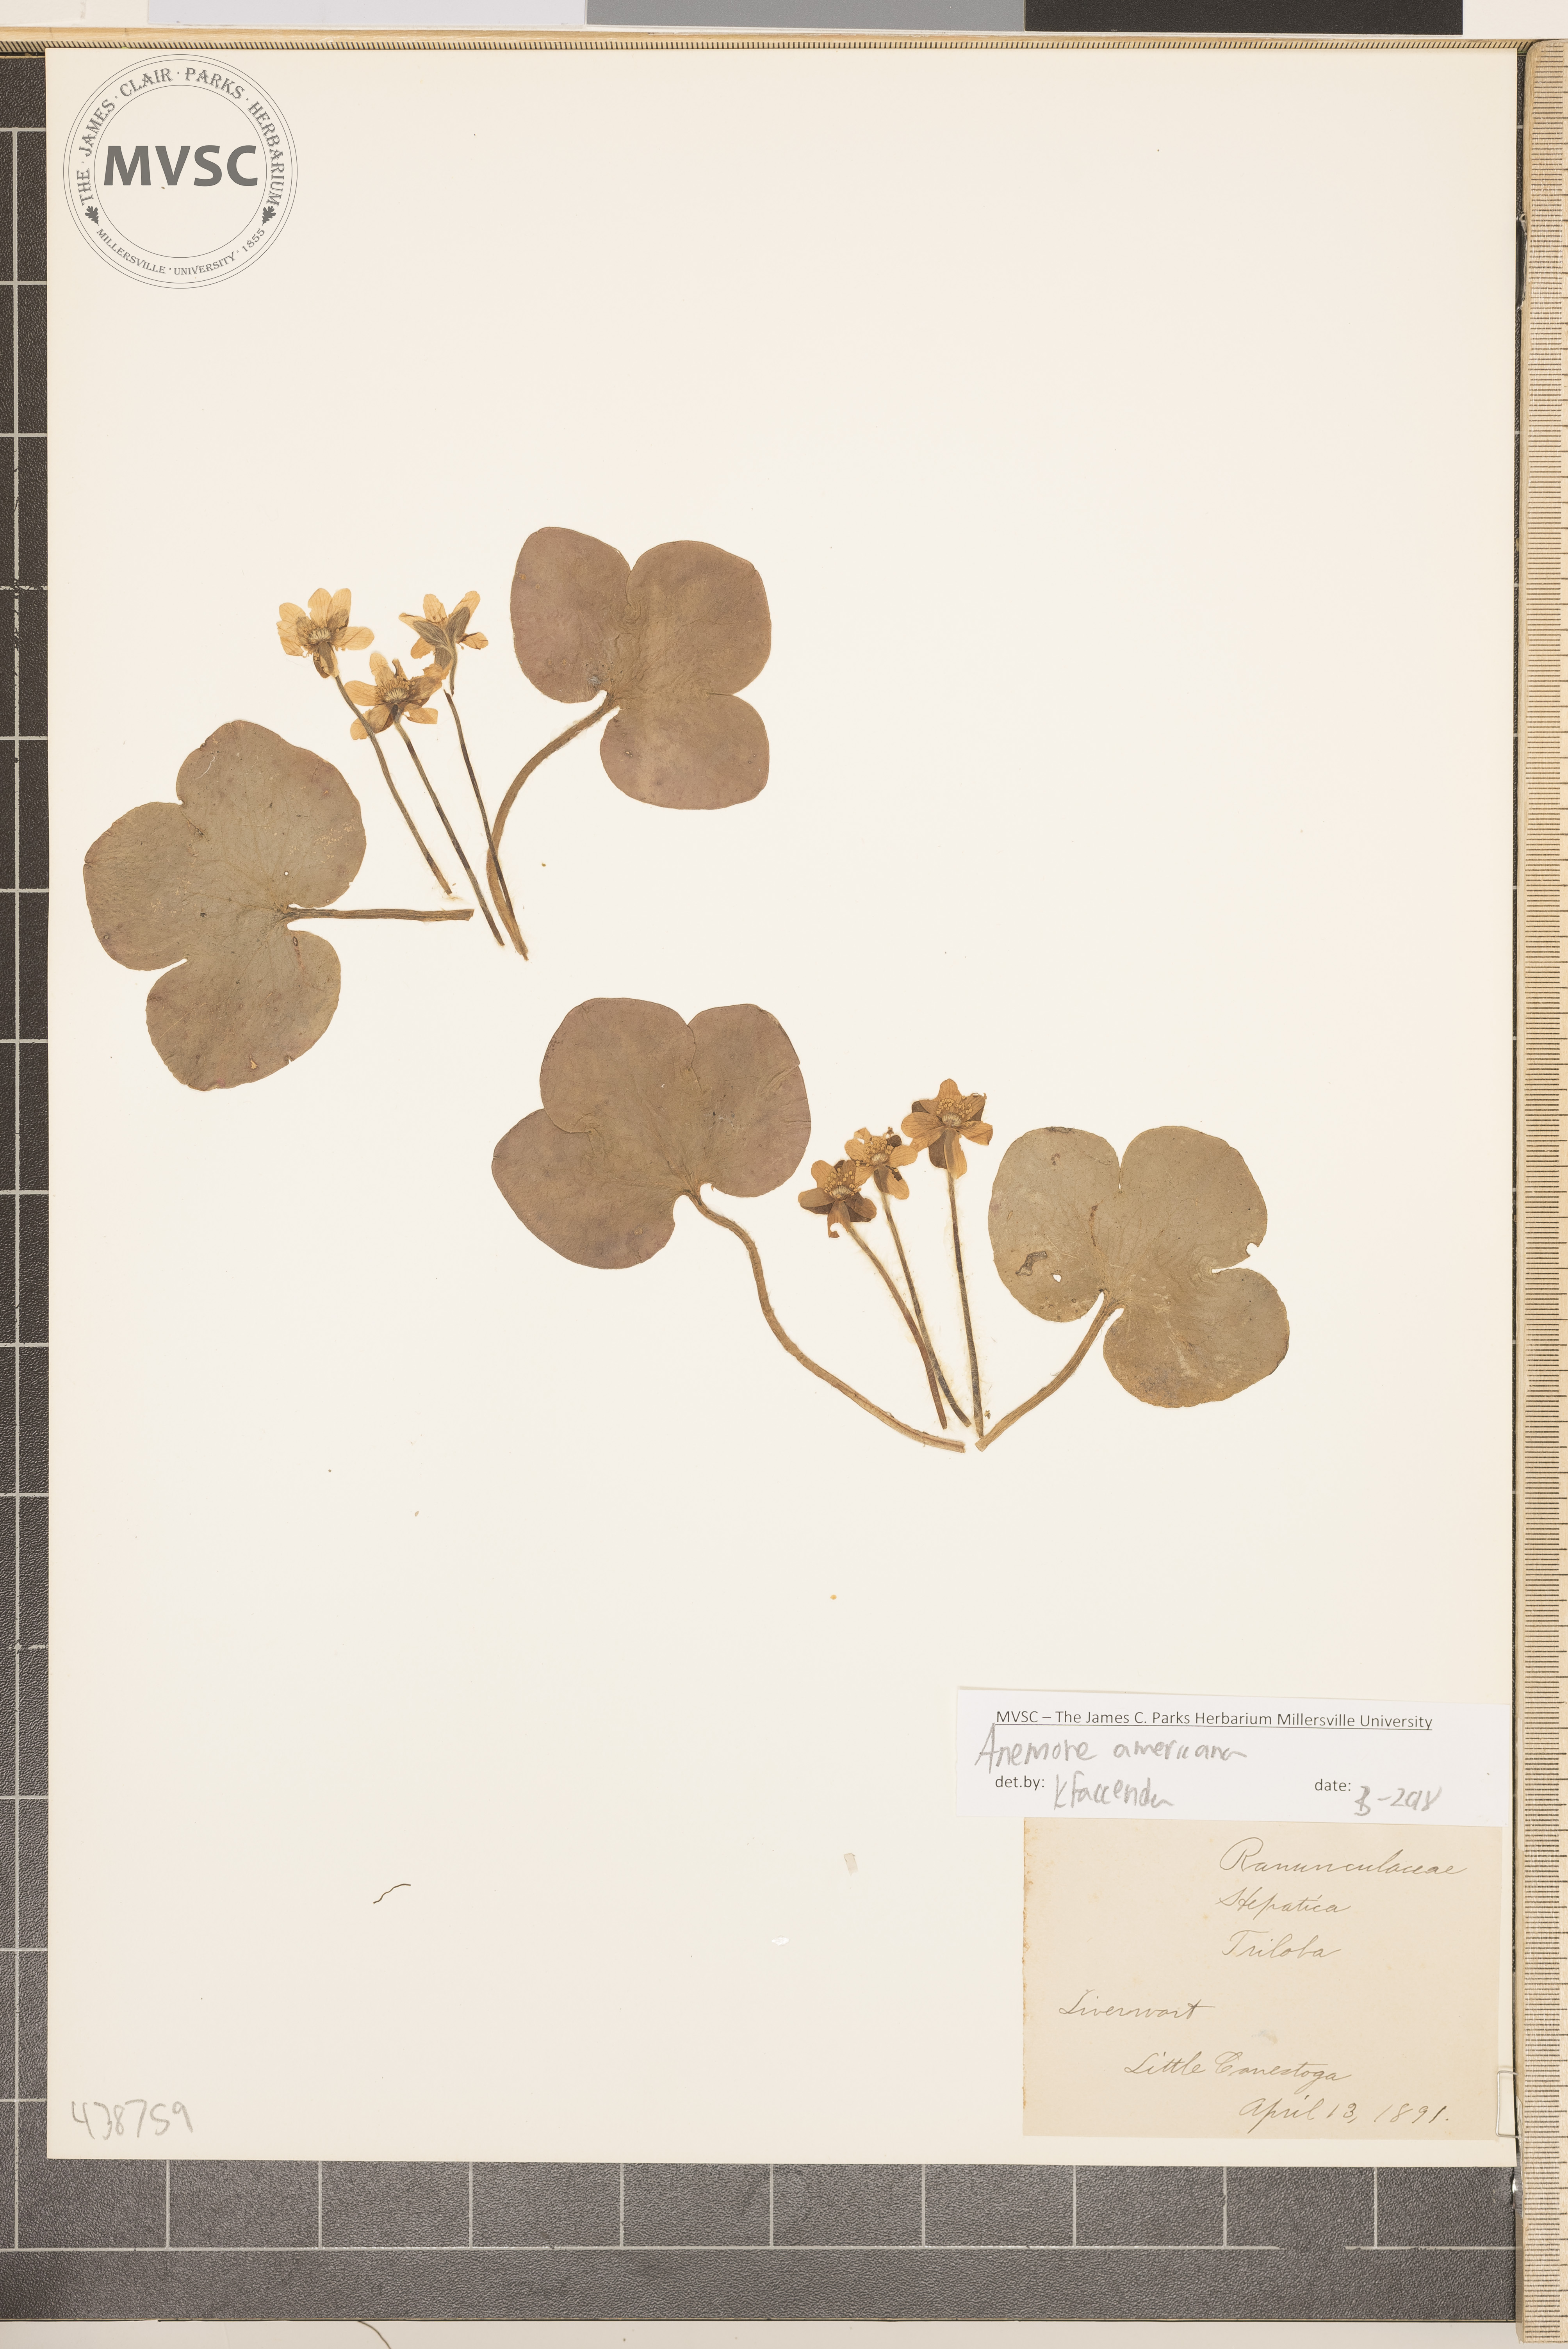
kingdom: Plantae
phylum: Tracheophyta
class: Magnoliopsida
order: Ranunculales
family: Ranunculaceae
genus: Hepatica
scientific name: Hepatica americana
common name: Liverwort
